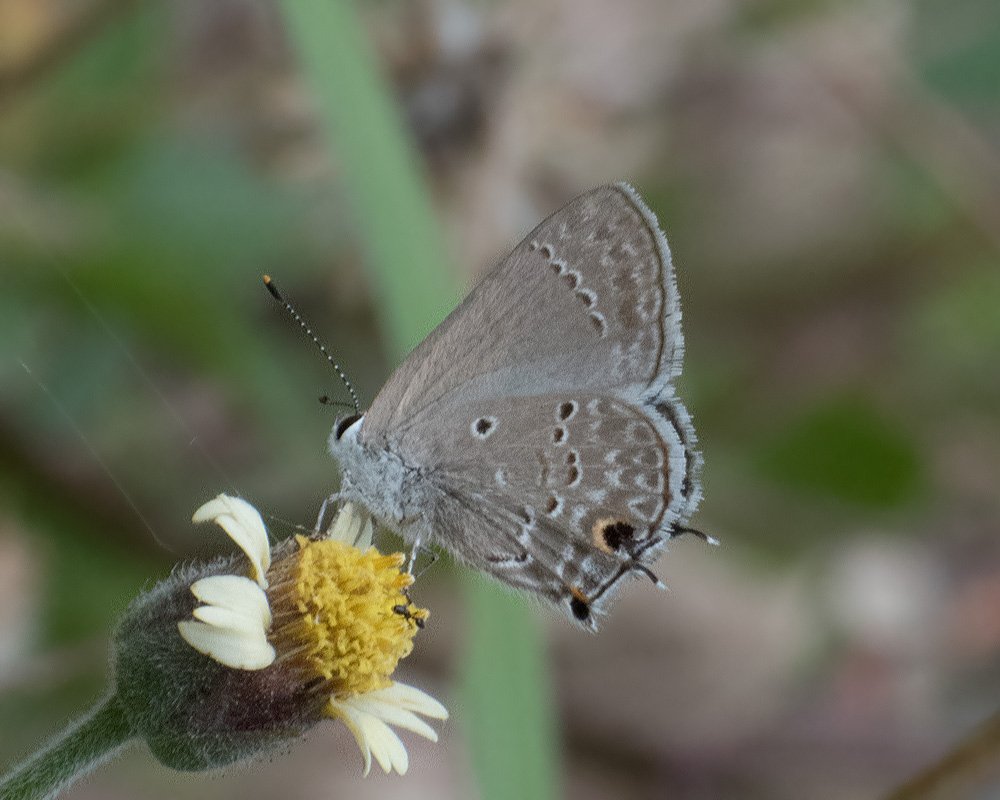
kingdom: Animalia
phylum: Arthropoda
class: Insecta
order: Lepidoptera
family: Lycaenidae
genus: Callicista
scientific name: Callicista columella
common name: Mallow Scrub-Hairstreak
